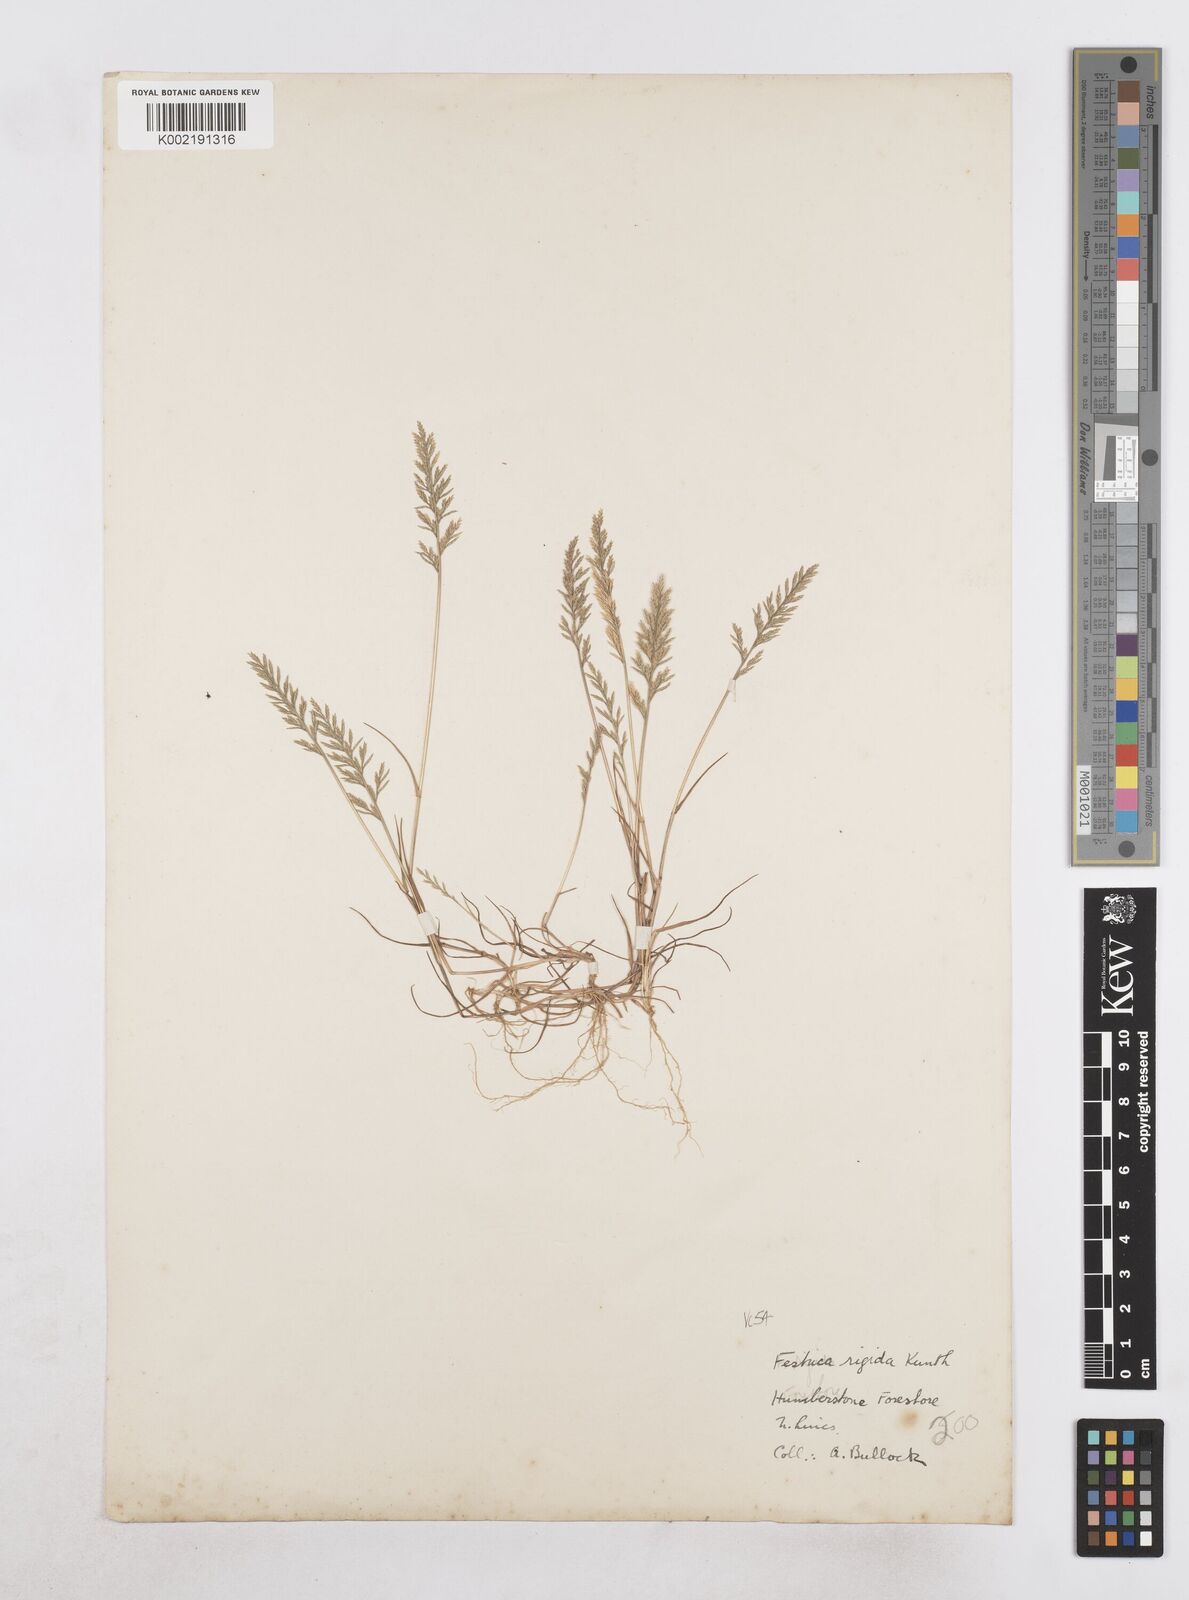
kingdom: Plantae
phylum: Tracheophyta
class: Liliopsida
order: Poales
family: Poaceae
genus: Catapodium
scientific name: Catapodium rigidum
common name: Fern-grass
